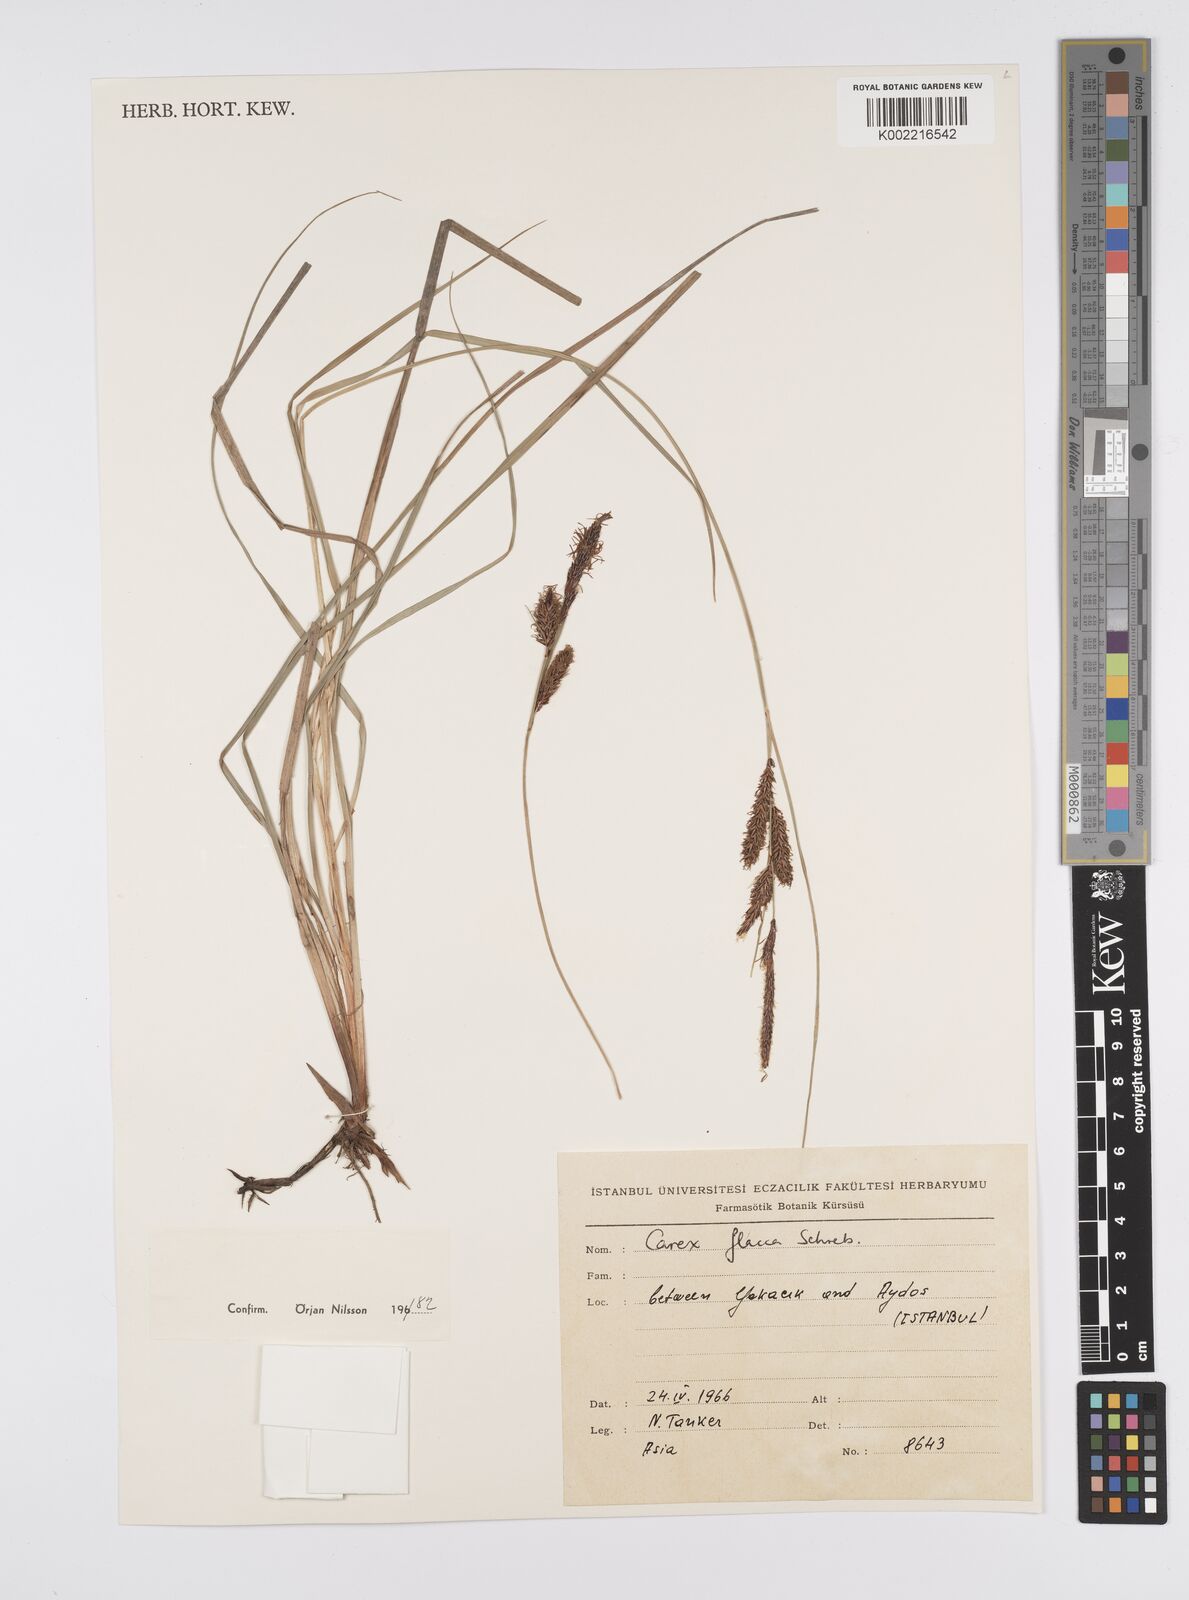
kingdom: Plantae
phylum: Tracheophyta
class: Liliopsida
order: Poales
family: Cyperaceae
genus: Carex
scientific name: Carex flacca
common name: Glaucous sedge
